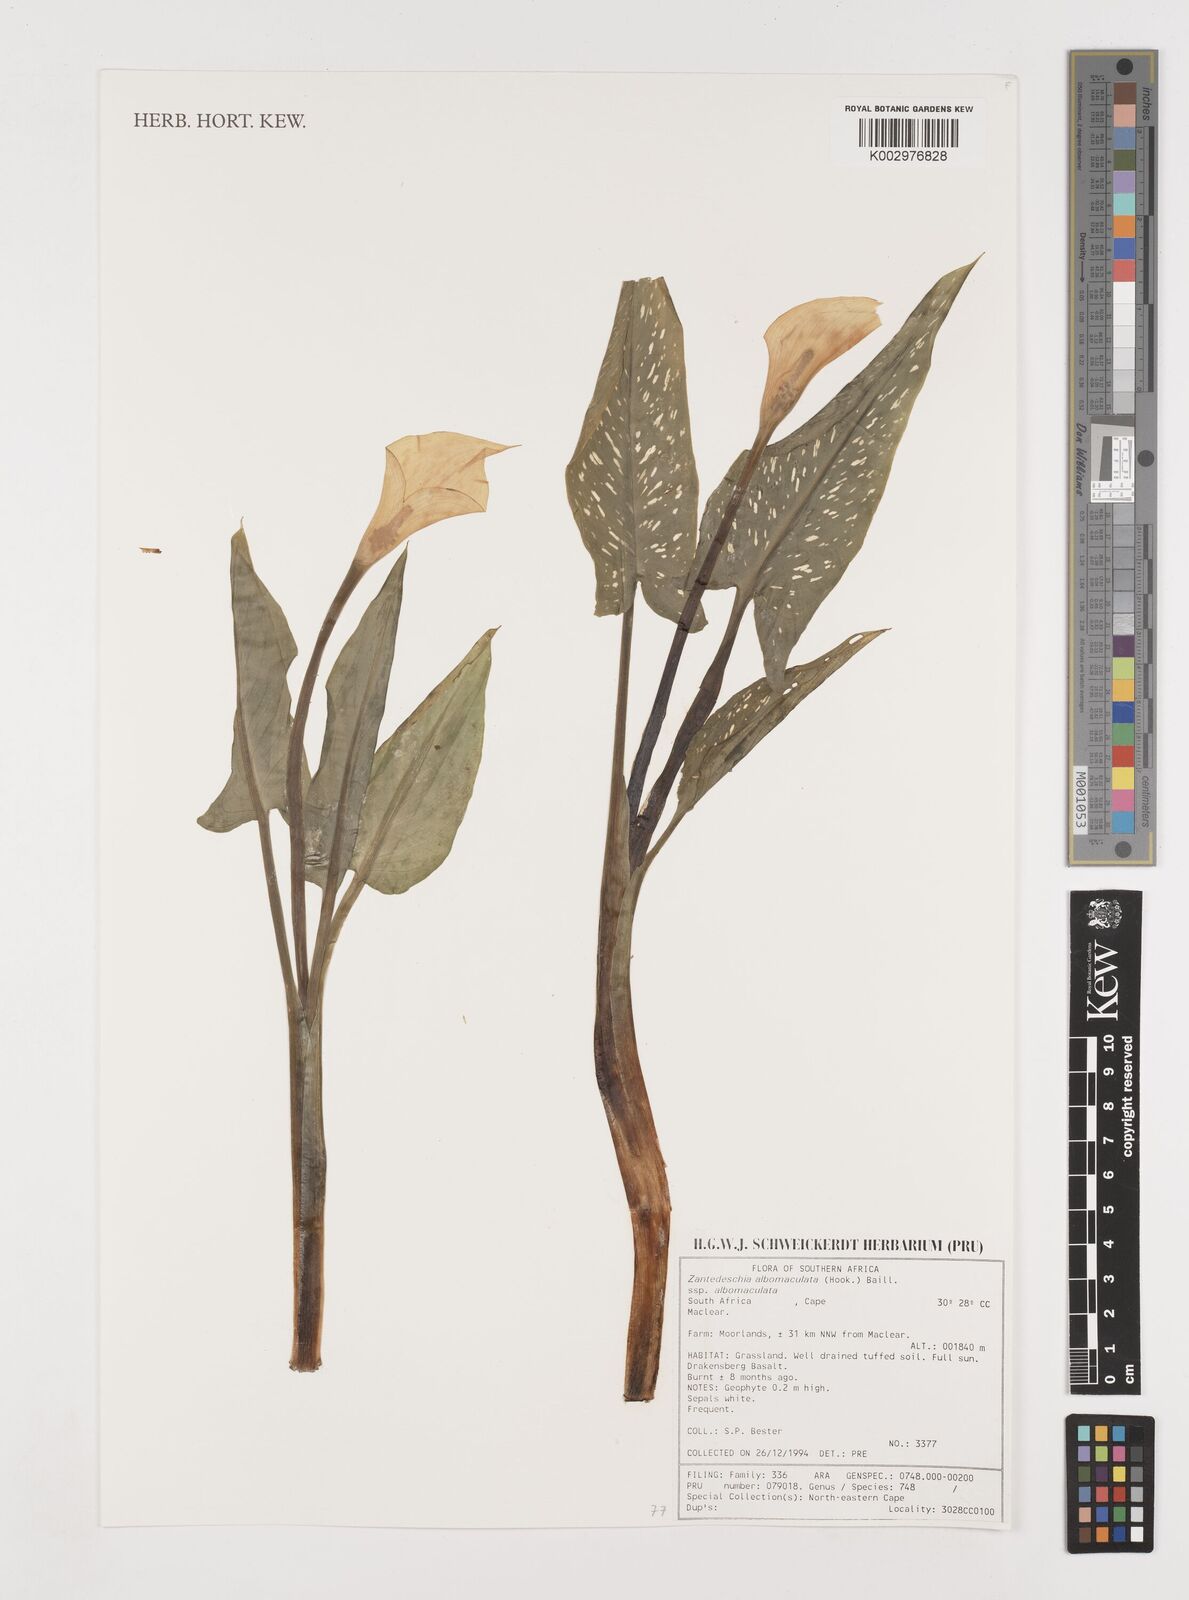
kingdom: Plantae
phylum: Tracheophyta
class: Liliopsida
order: Alismatales
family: Araceae
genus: Zantedeschia
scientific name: Zantedeschia albomaculata
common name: Spotted calla lily
